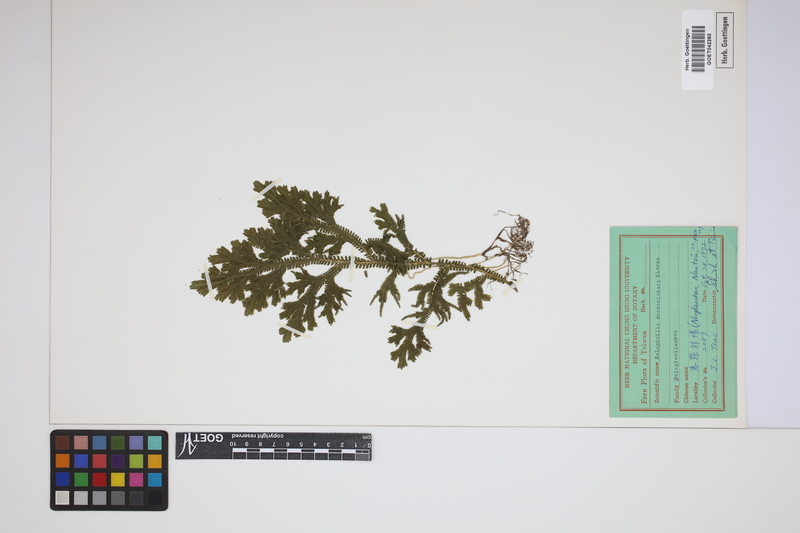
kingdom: Plantae
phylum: Tracheophyta
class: Lycopodiopsida
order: Selaginellales
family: Selaginellaceae
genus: Selaginella
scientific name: Selaginella doederleinii
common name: Greater selaginella
